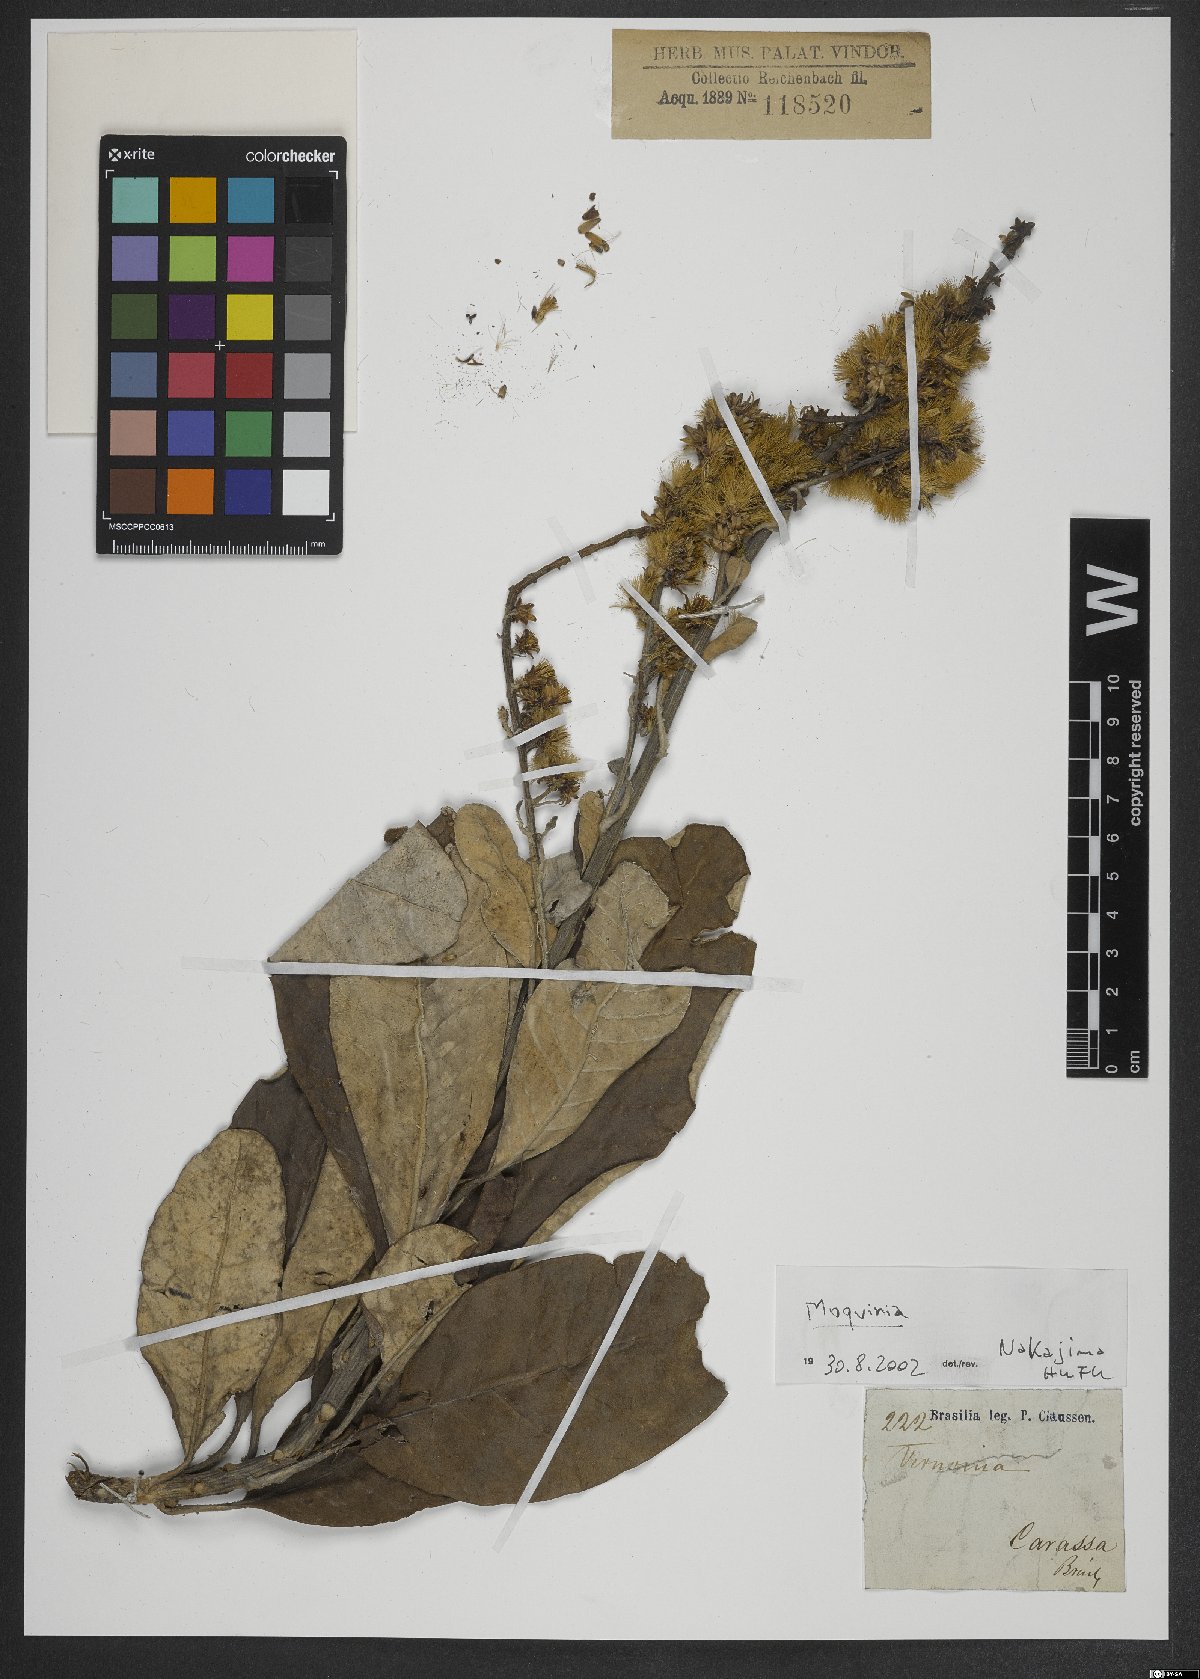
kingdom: Plantae
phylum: Tracheophyta
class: Magnoliopsida
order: Asterales
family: Asteraceae
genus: Moquinia
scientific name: Moquinia
